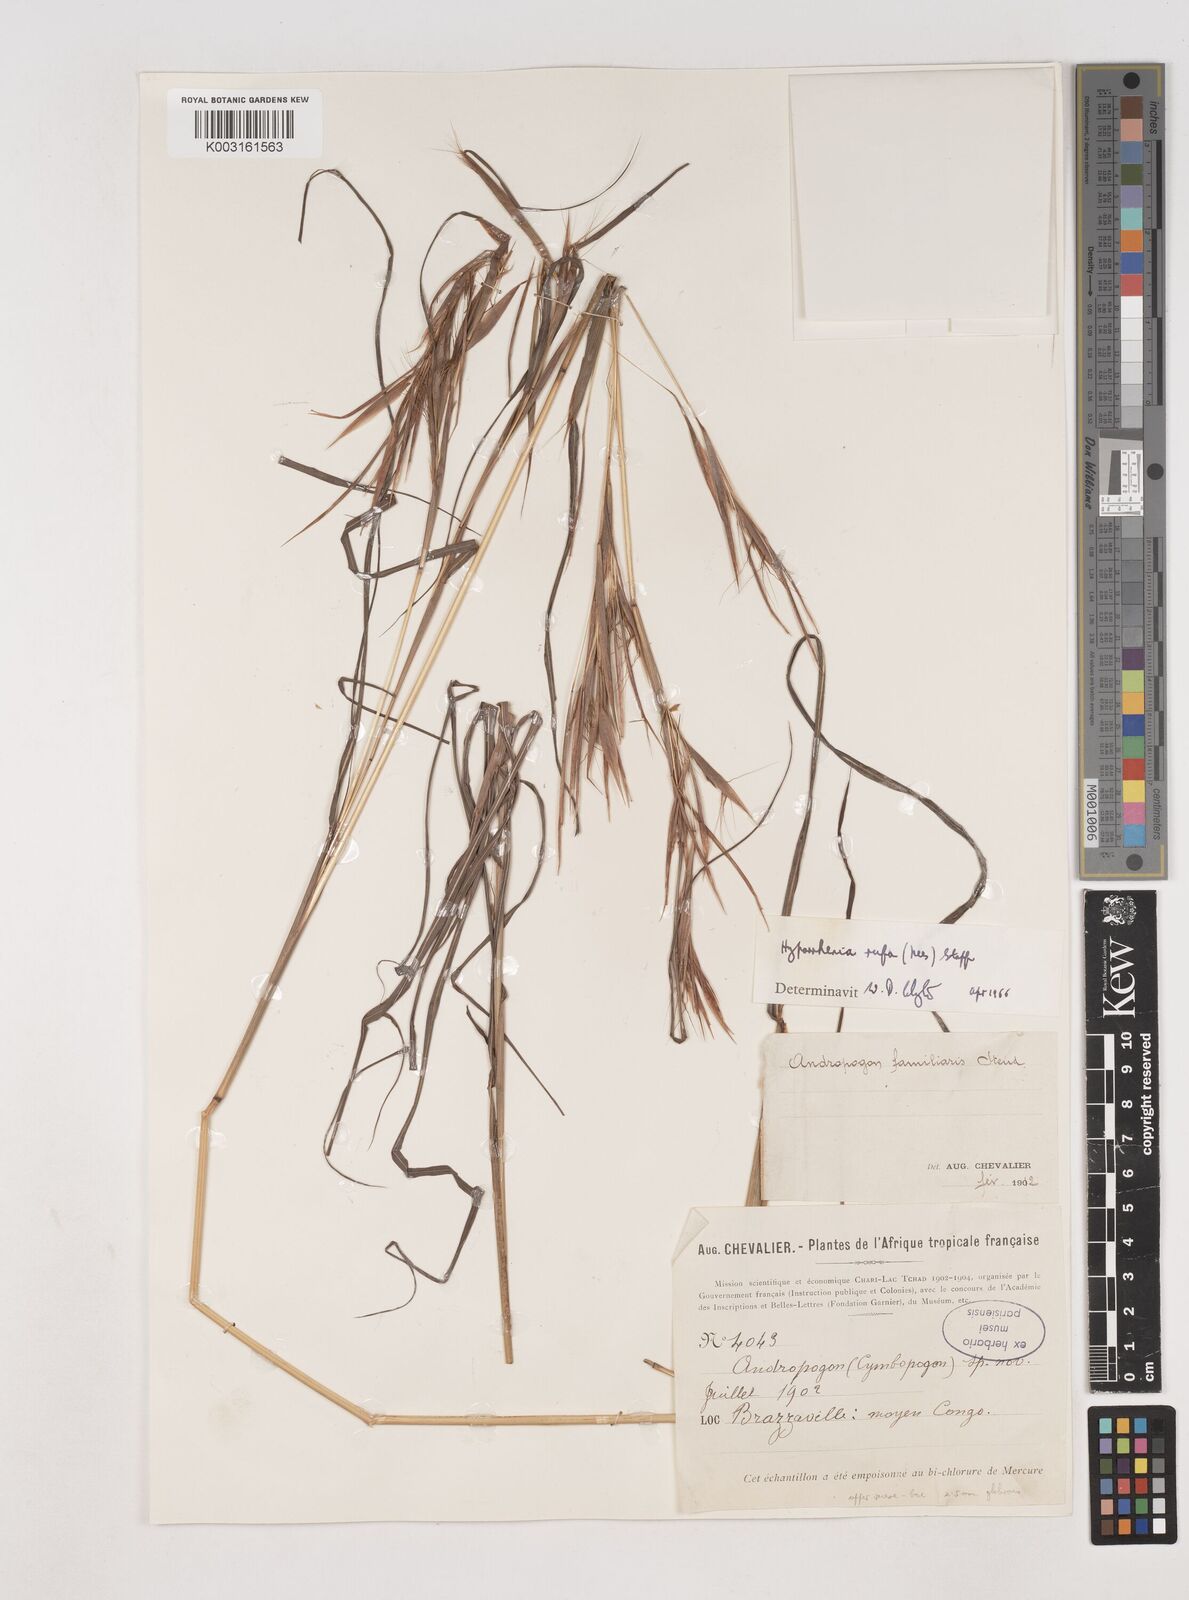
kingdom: Plantae
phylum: Tracheophyta
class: Liliopsida
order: Poales
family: Poaceae
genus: Hyparrhenia
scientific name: Hyparrhenia rufa
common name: Jaraguagrass
